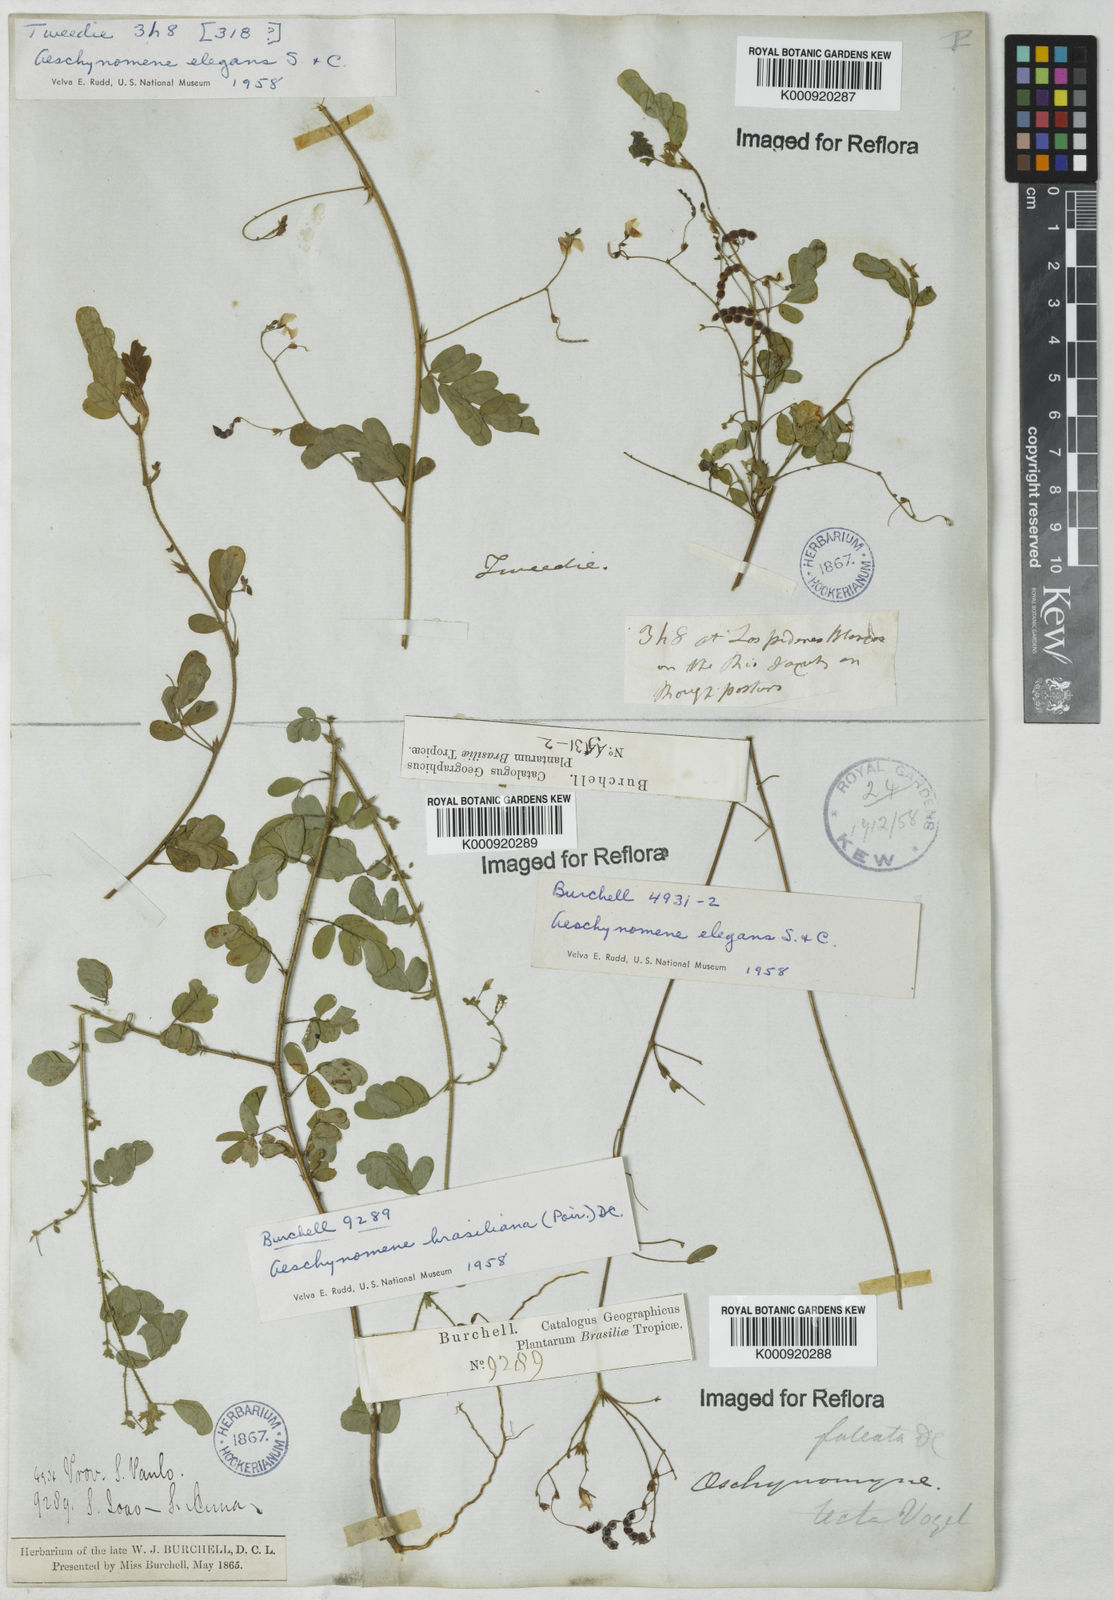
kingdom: Plantae
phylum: Tracheophyta
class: Magnoliopsida
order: Fabales
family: Fabaceae
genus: Ctenodon
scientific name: Ctenodon elegans
